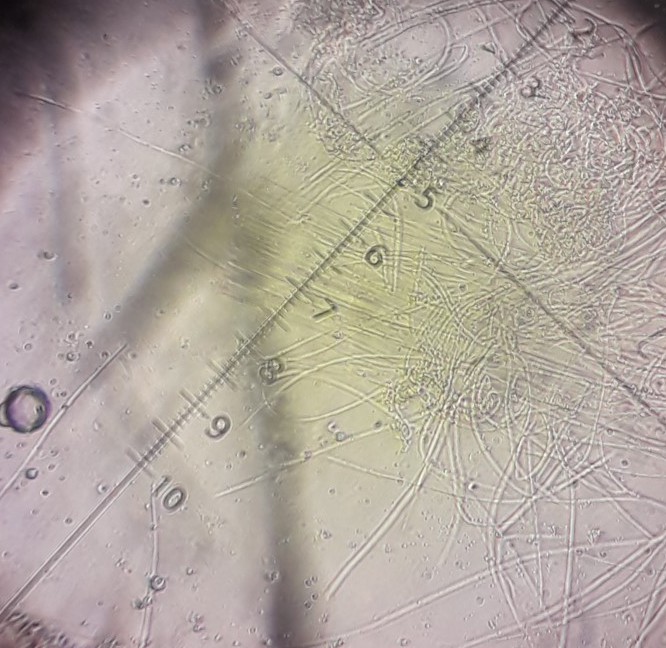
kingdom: Fungi
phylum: Ascomycota
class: Lecanoromycetes
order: Ostropales
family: Stictidaceae
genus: Stictis
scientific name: Stictis radiata
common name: tandet barkhul
